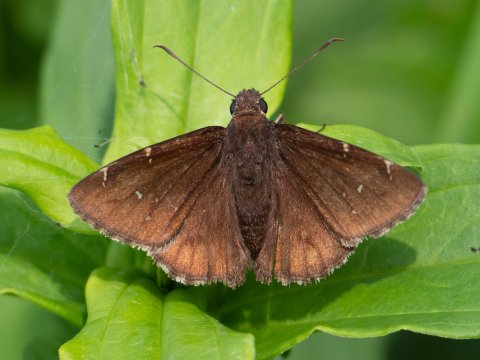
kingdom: Animalia
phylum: Arthropoda
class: Insecta
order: Lepidoptera
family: Hesperiidae
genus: Autochton
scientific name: Autochton
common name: Northern Cloudywing
